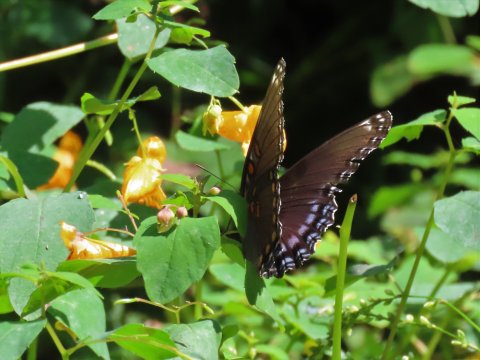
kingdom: Animalia
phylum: Arthropoda
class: Insecta
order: Lepidoptera
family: Nymphalidae
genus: Limenitis
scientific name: Limenitis arthemis
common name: Red-spotted Admiral
